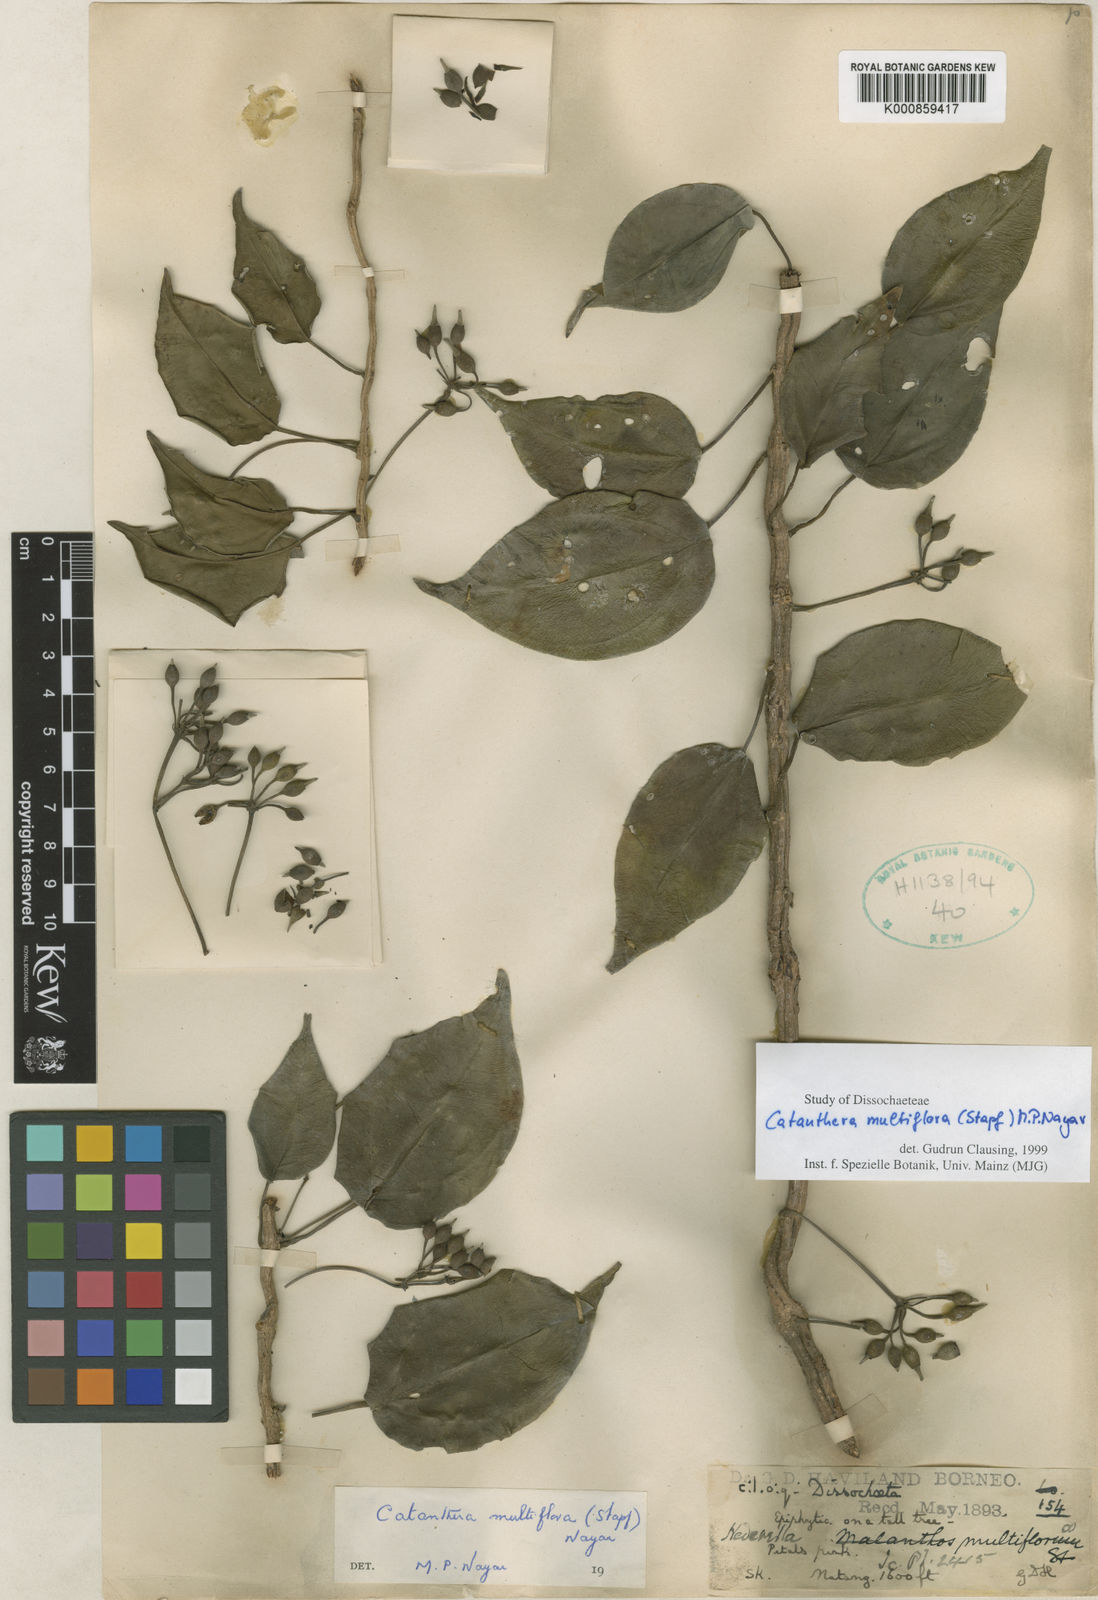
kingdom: Plantae
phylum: Tracheophyta
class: Magnoliopsida
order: Myrtales
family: Melastomataceae
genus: Catanthera
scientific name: Catanthera multiflora
